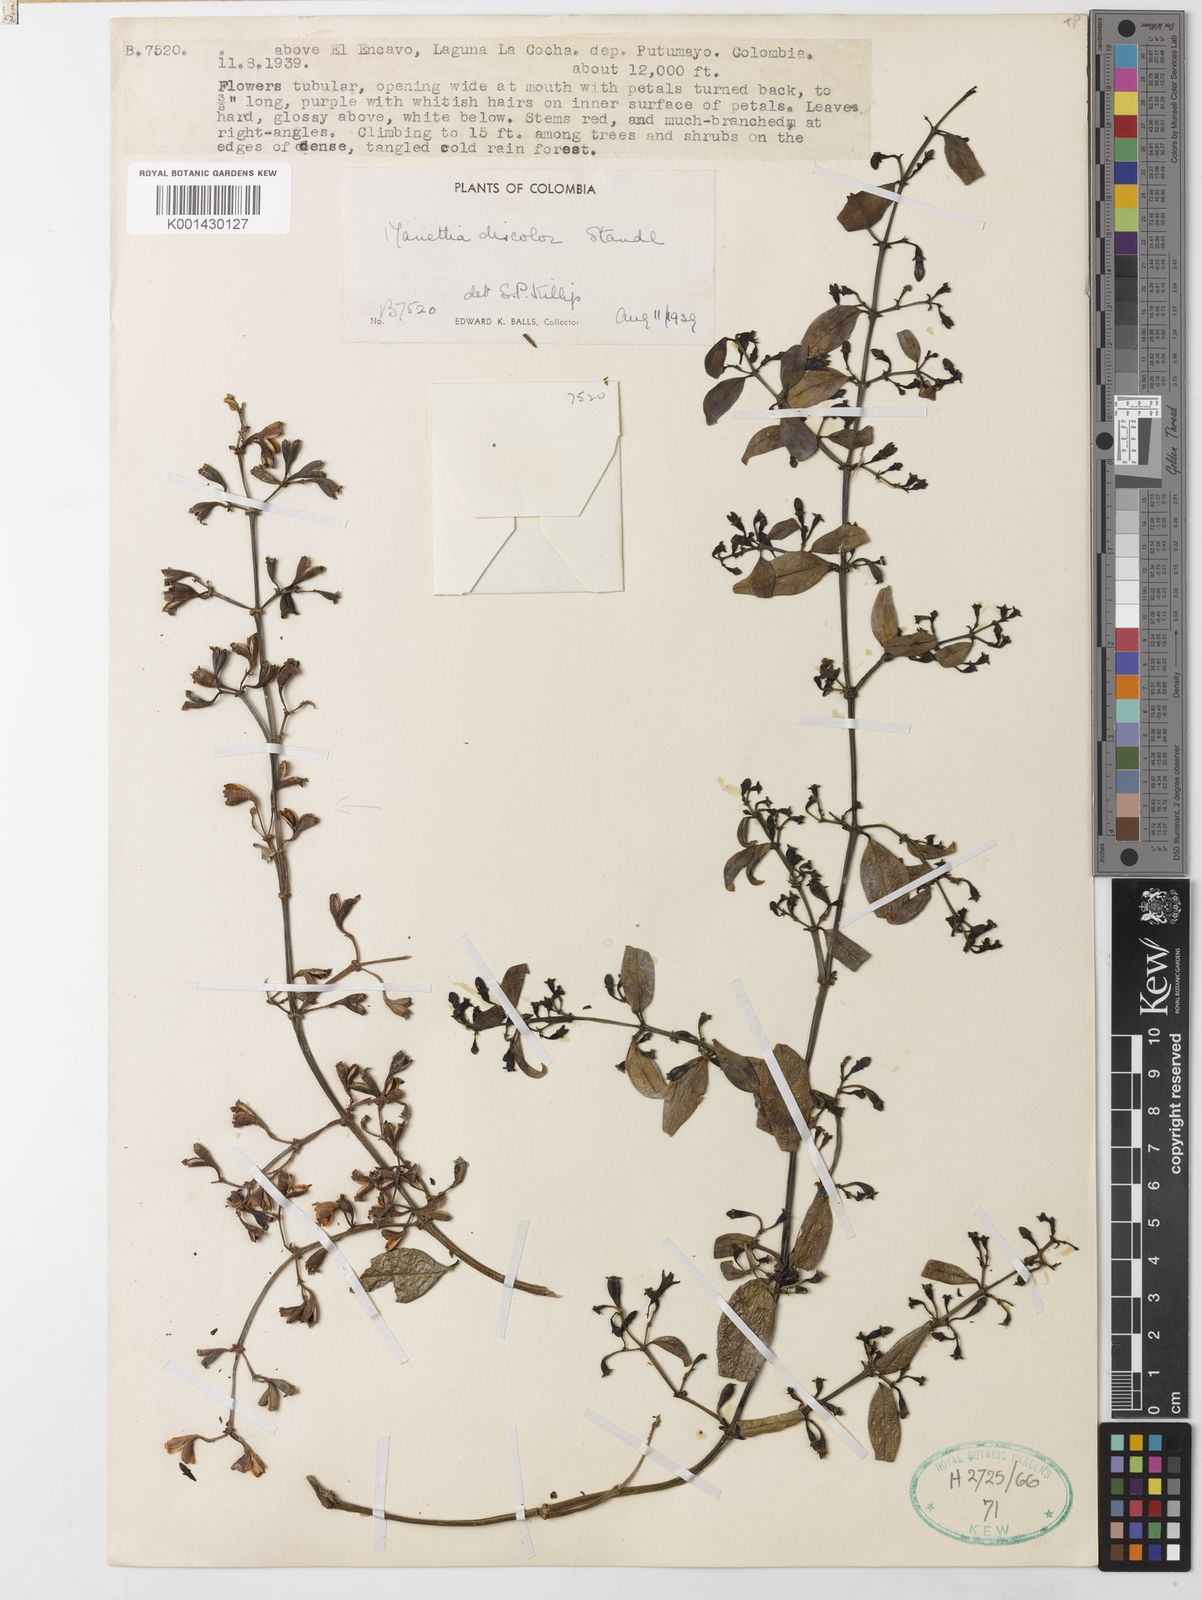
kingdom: Plantae
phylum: Tracheophyta
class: Magnoliopsida
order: Gentianales
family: Rubiaceae
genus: Manettia
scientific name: Manettia discolor
